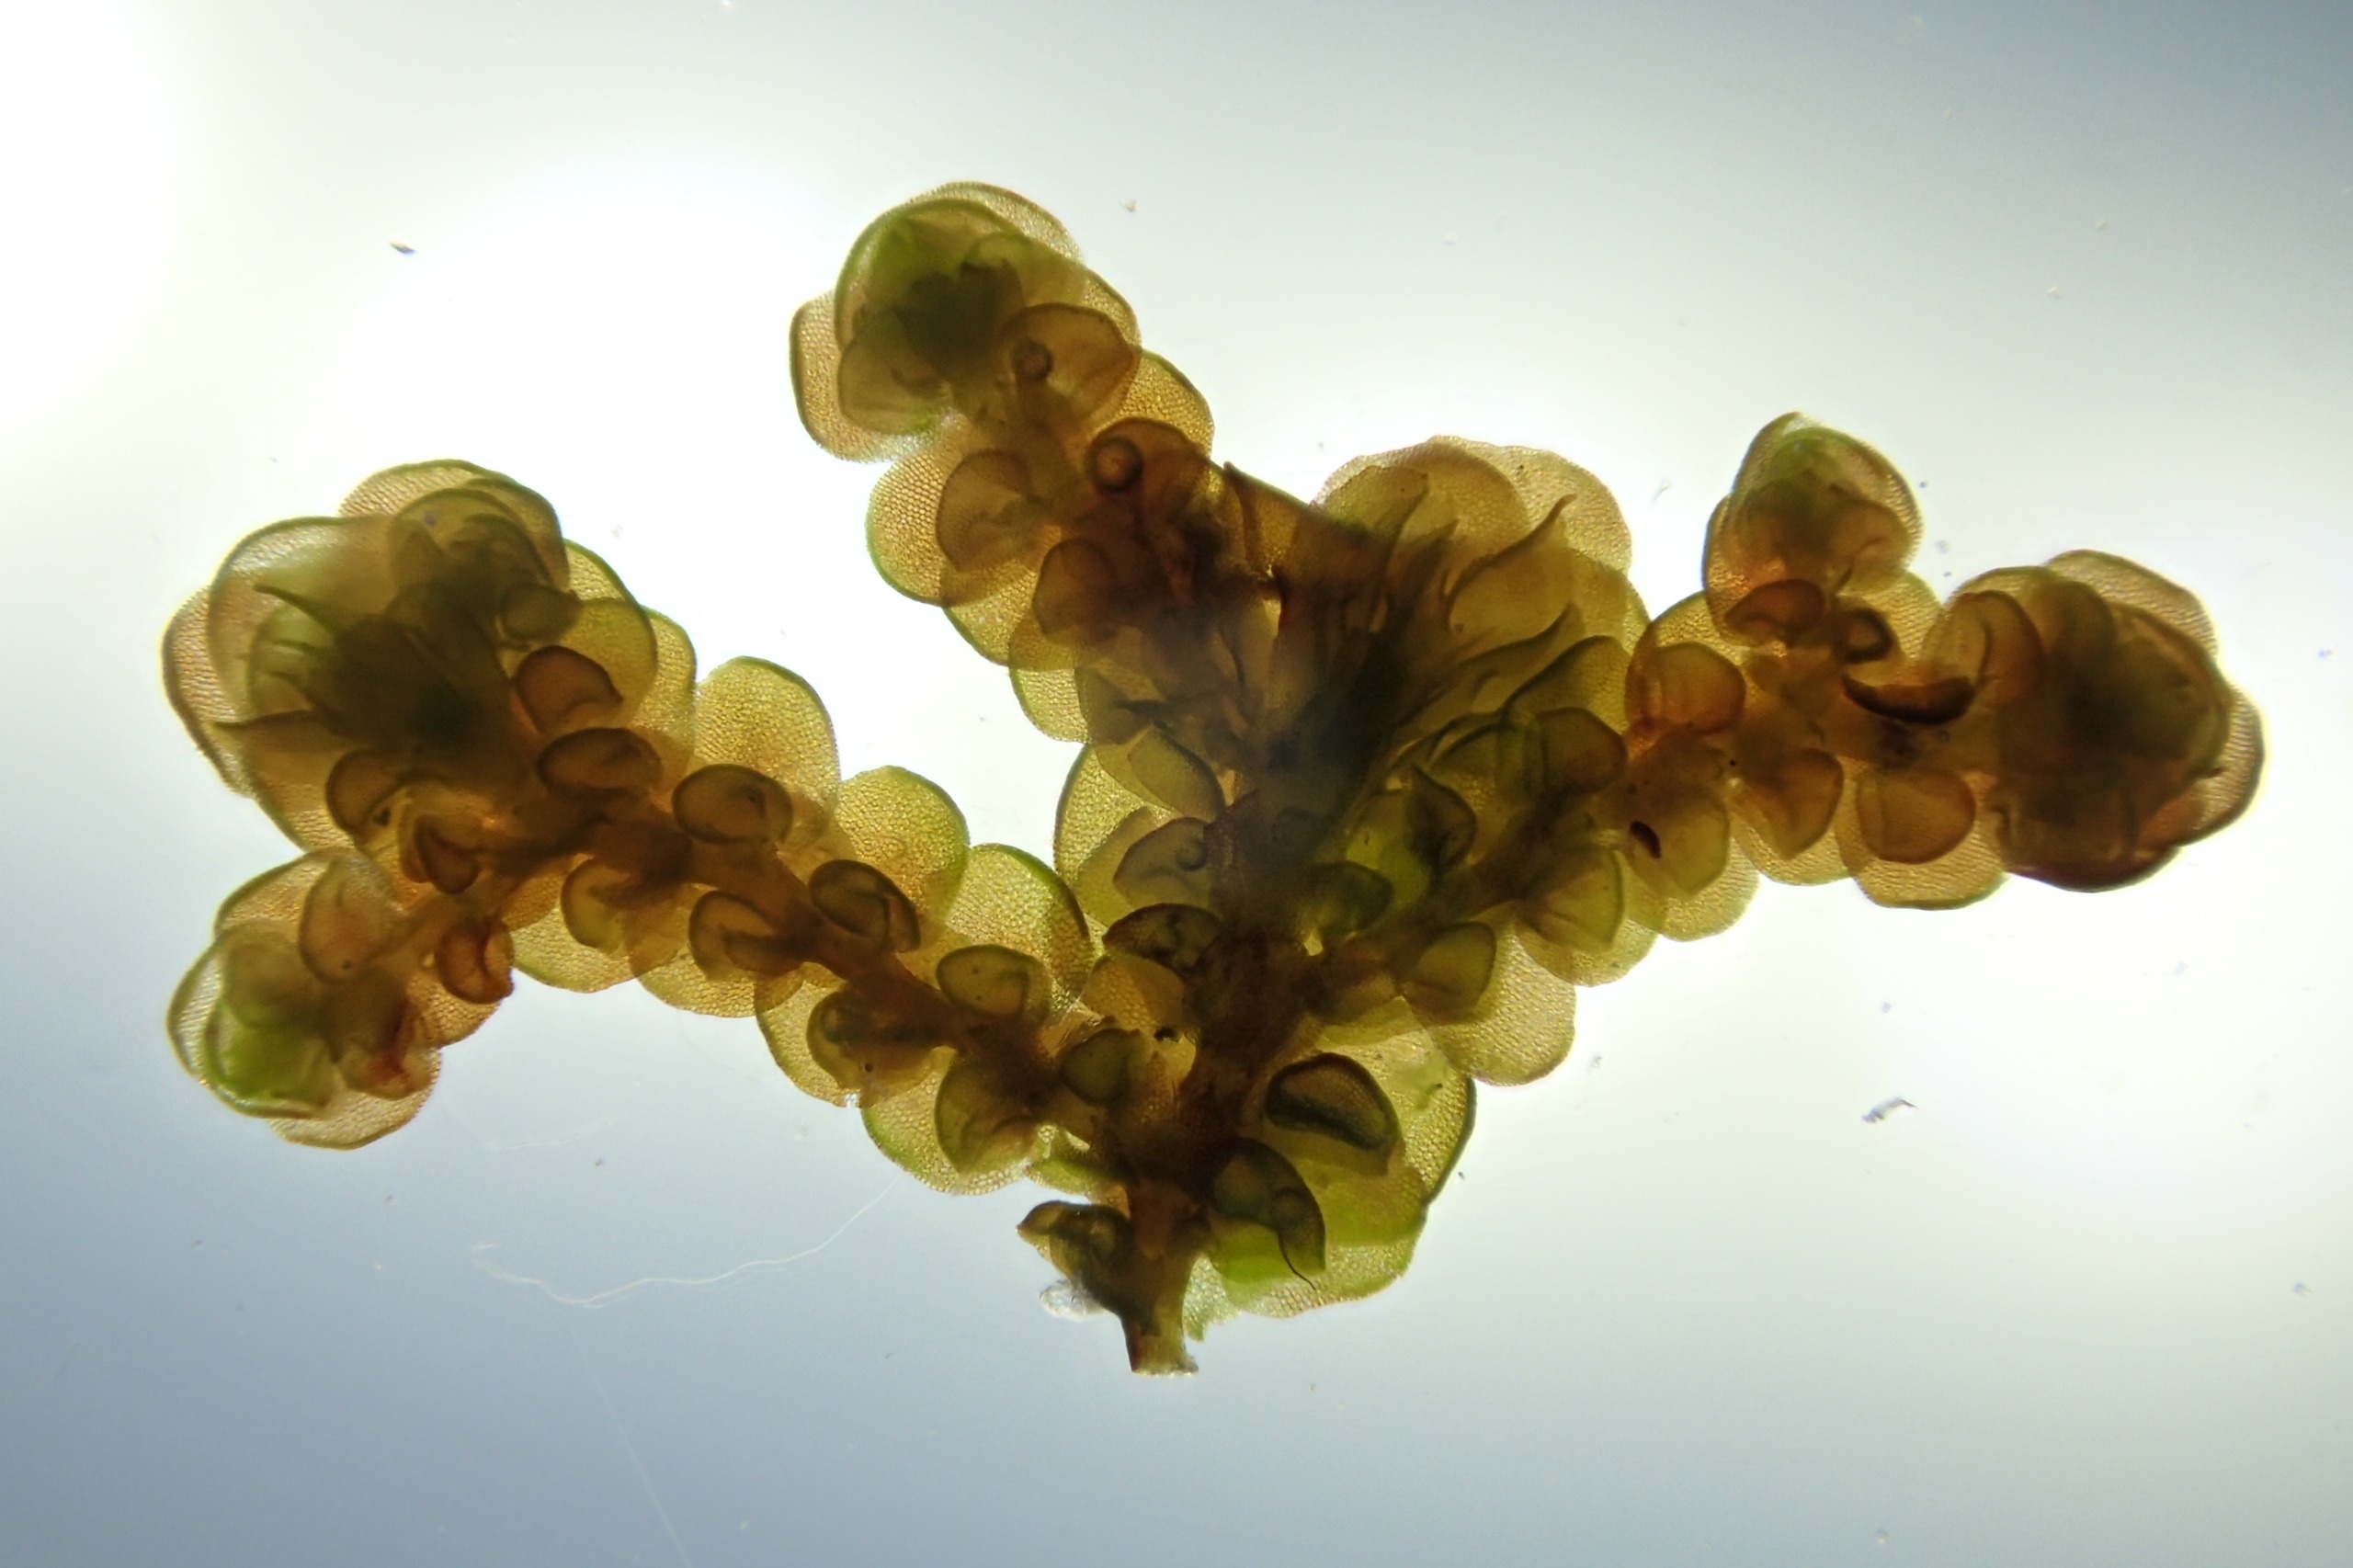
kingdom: Plantae
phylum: Marchantiophyta
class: Jungermanniopsida
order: Porellales
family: Frullaniaceae
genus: Frullania
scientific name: Frullania dilatata
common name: Mat bronzemos
